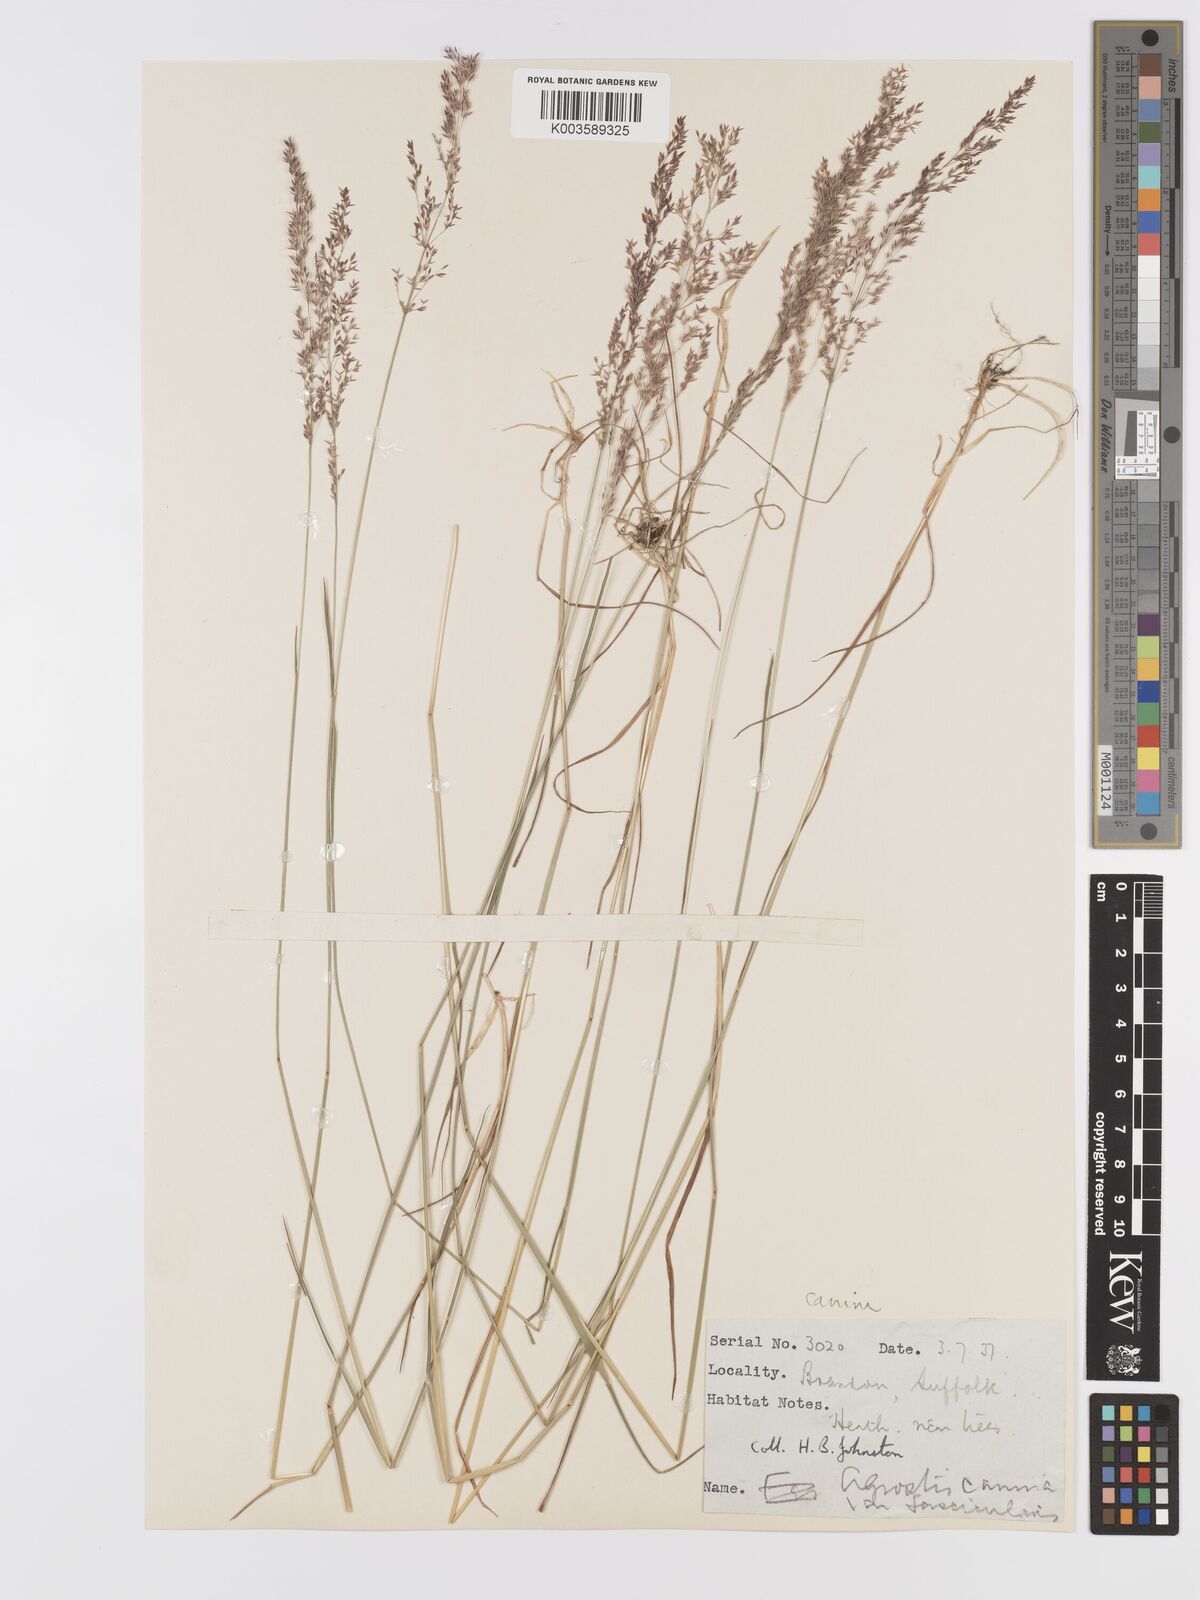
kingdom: Plantae
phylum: Tracheophyta
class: Liliopsida
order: Poales
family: Poaceae
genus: Agrostis
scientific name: Agrostis canina
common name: Velvet bent
